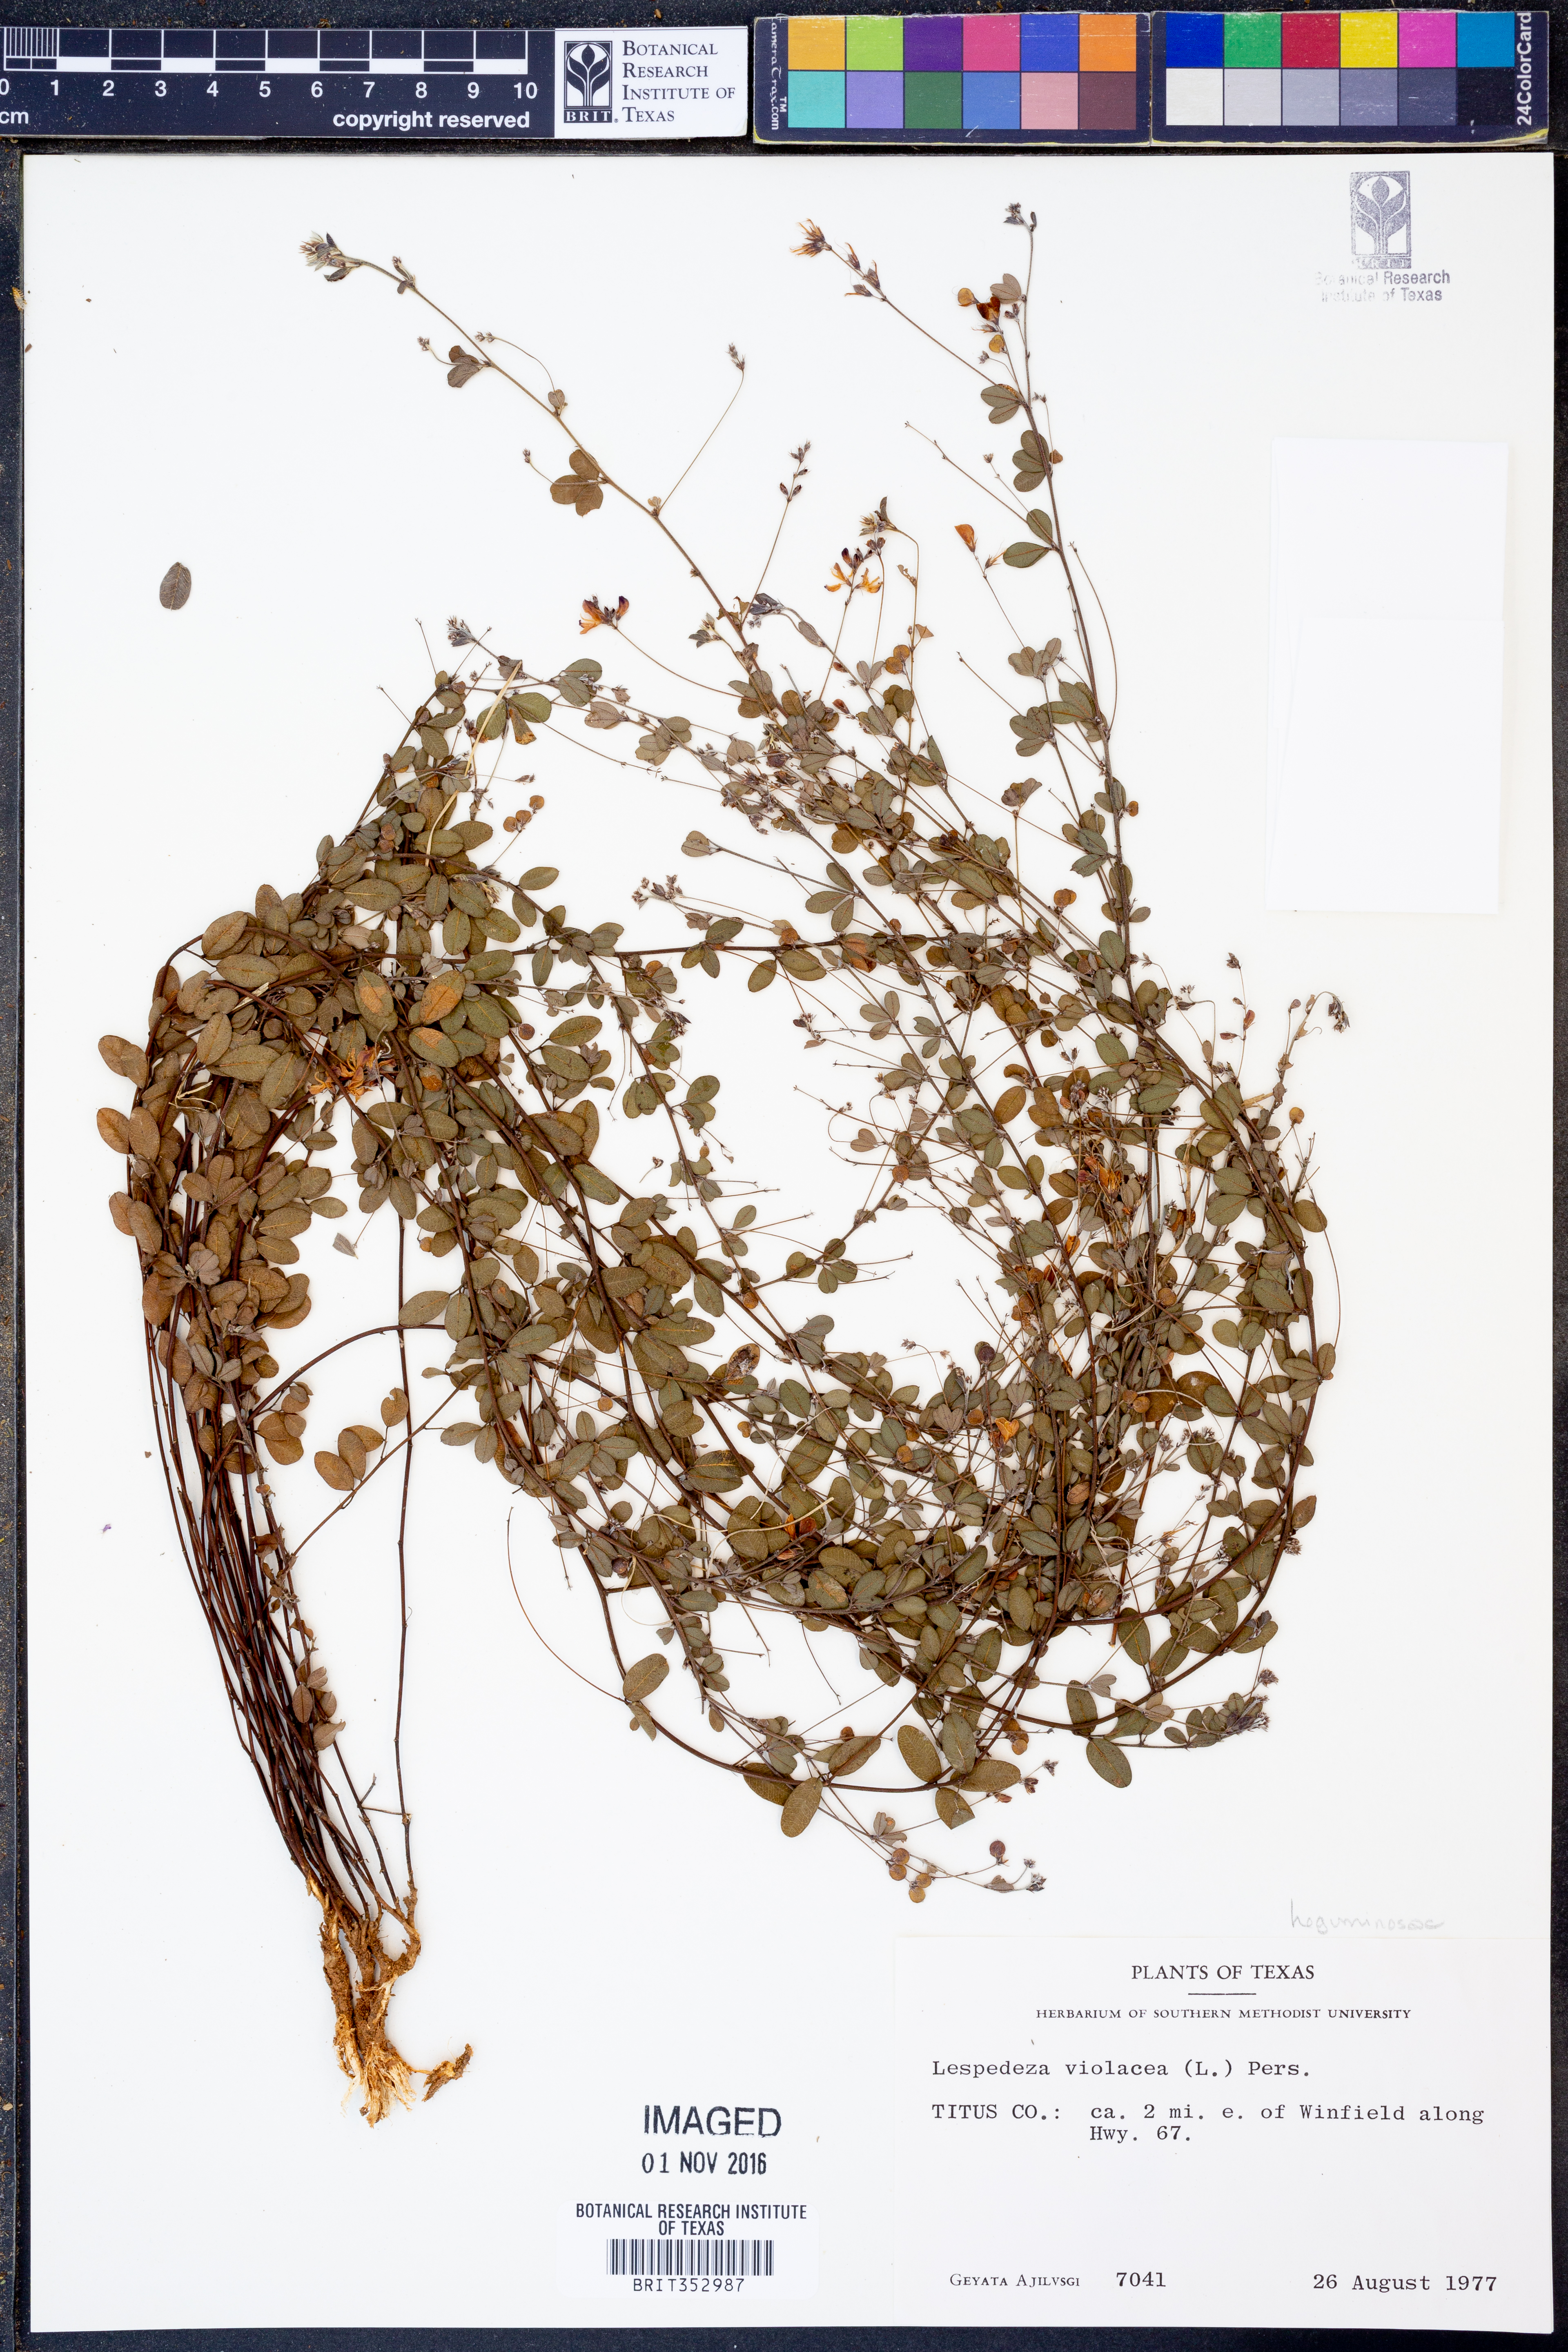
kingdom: Plantae
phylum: Tracheophyta
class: Magnoliopsida
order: Fabales
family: Fabaceae
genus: Lespedeza
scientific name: Lespedeza violacea
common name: Wand bush-clover
